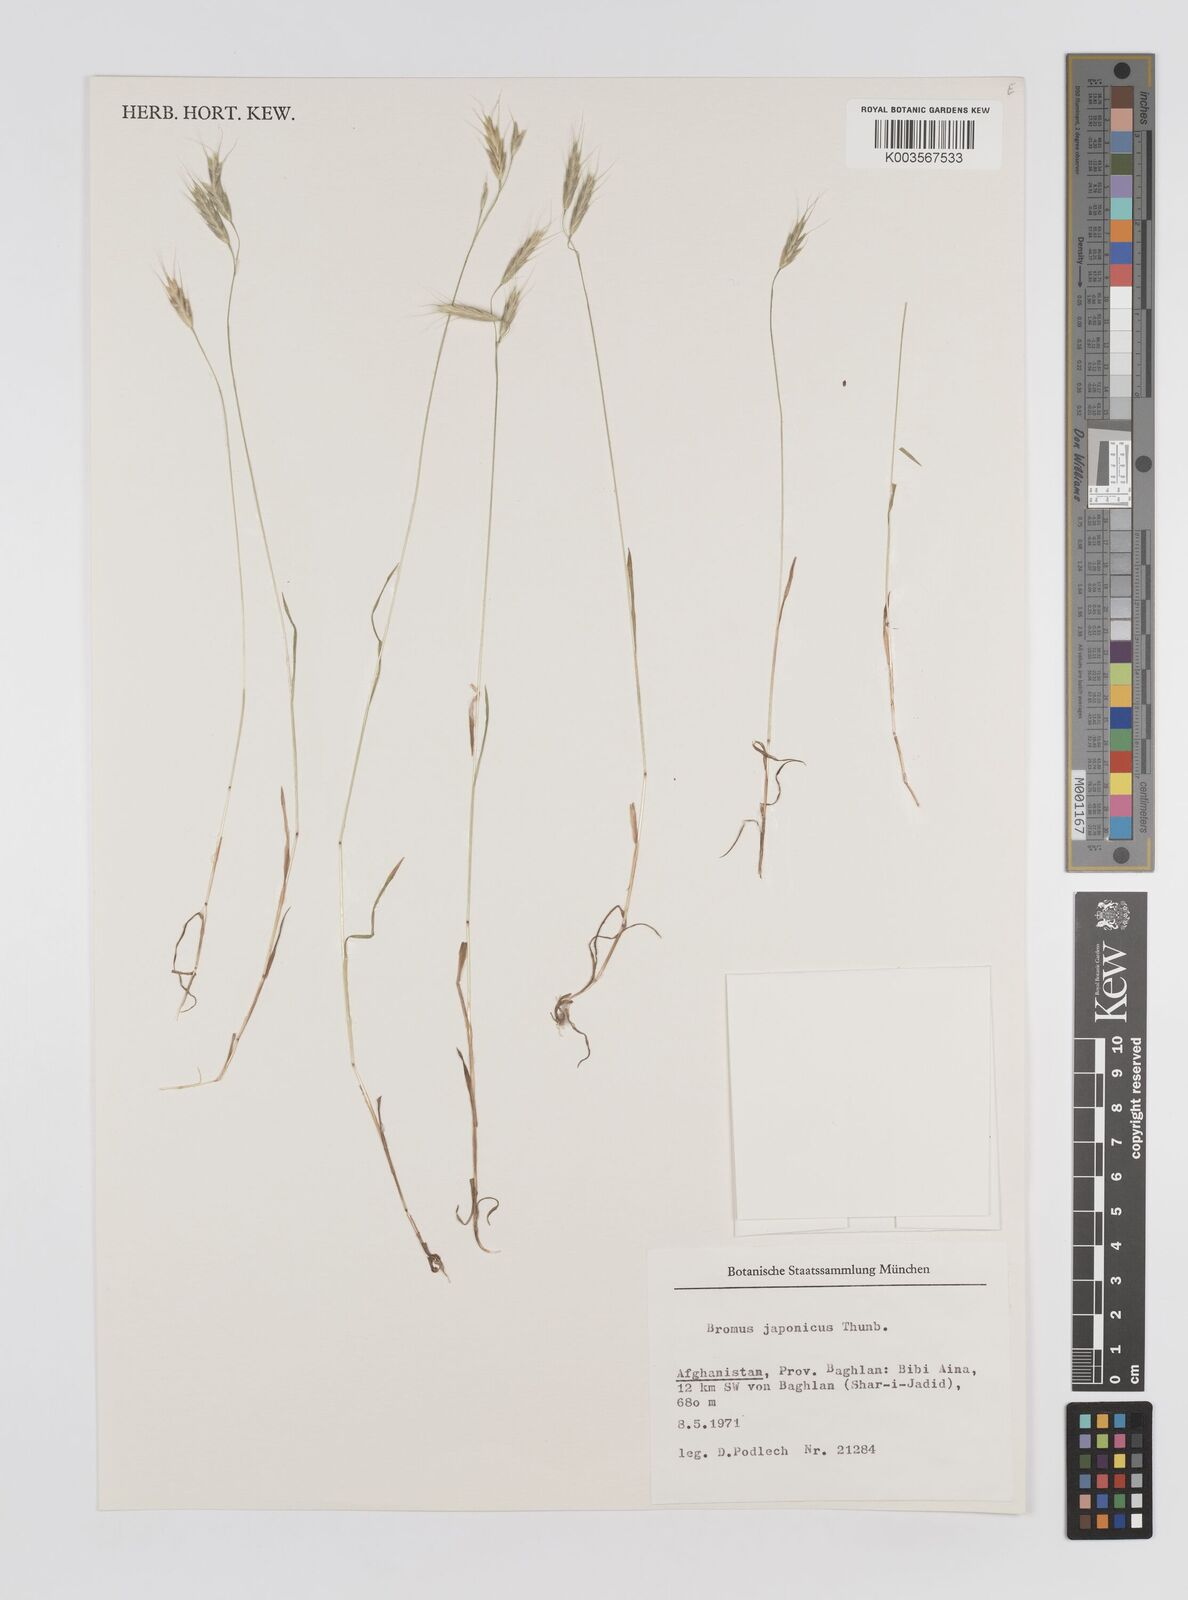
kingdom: Plantae
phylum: Tracheophyta
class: Liliopsida
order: Poales
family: Poaceae
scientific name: Poaceae
